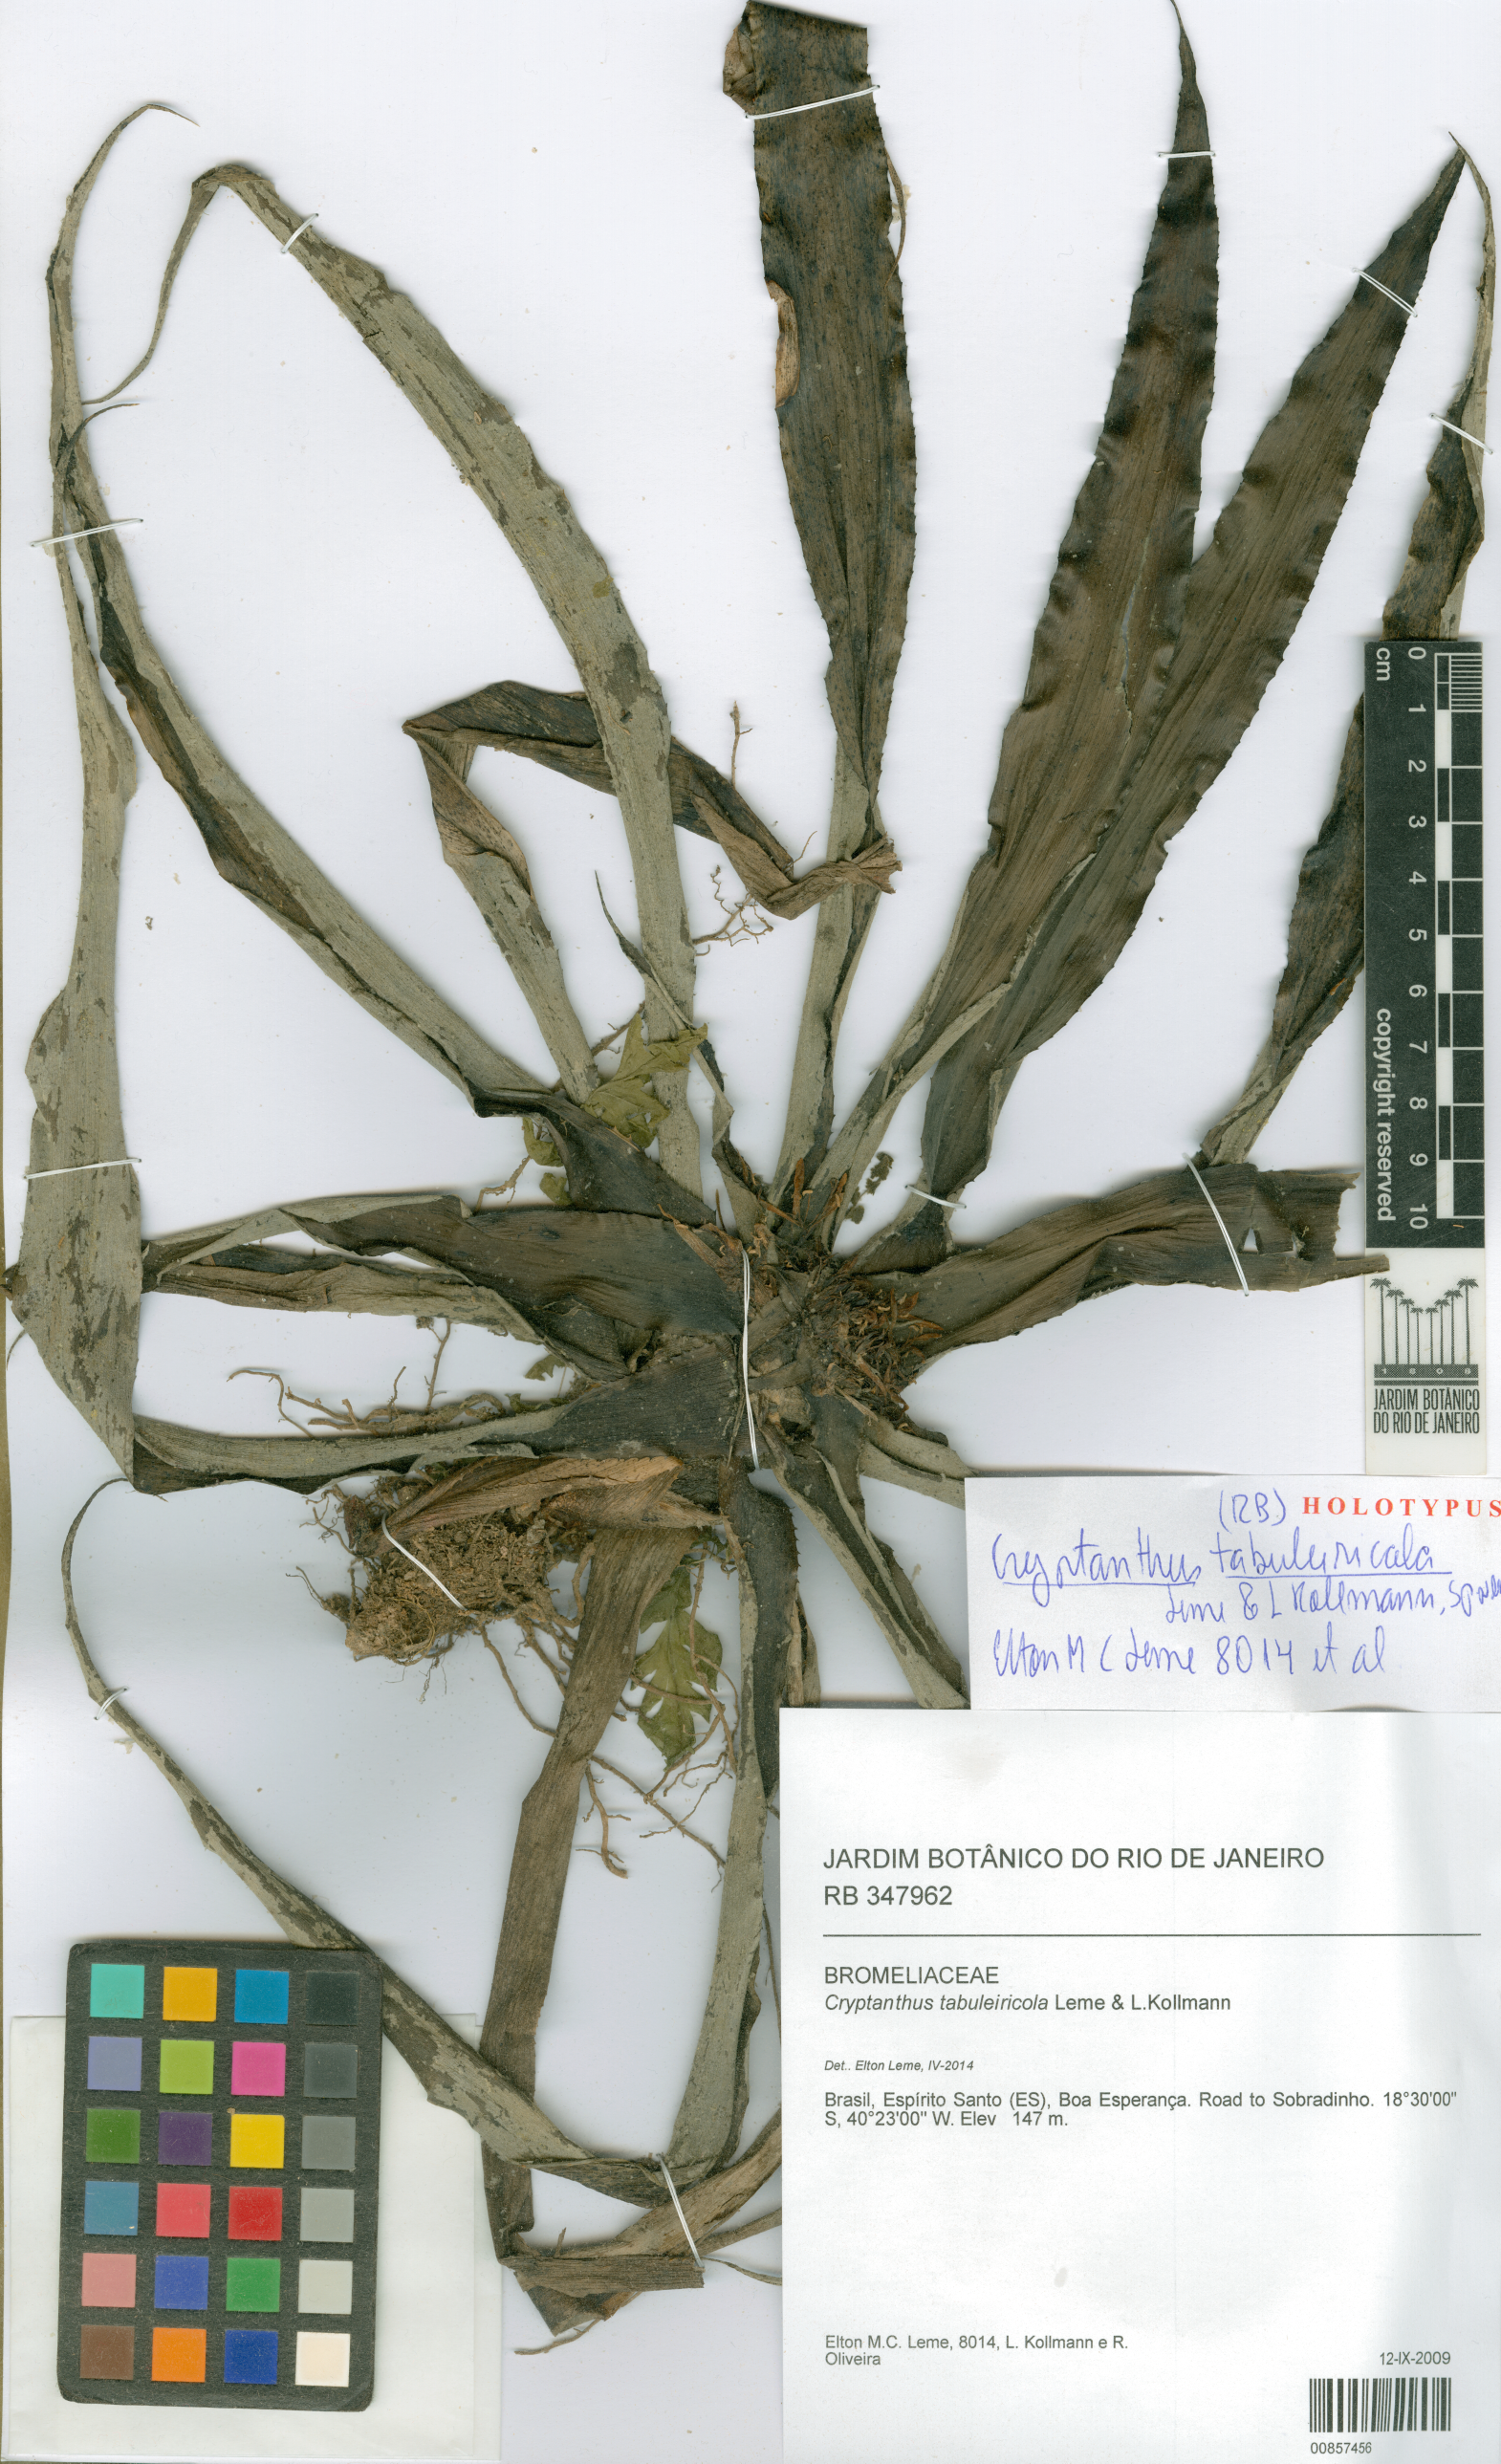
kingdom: Plantae
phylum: Tracheophyta
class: Liliopsida
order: Poales
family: Bromeliaceae
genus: Cryptanthus
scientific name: Cryptanthus tabuleiricola
